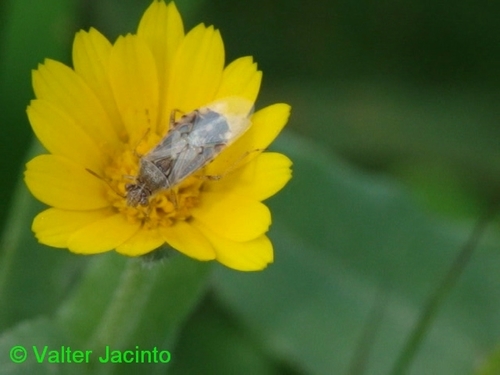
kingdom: Animalia
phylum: Arthropoda
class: Insecta
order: Hemiptera
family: Rhopalidae
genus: Liorhyssus
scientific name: Liorhyssus hyalinus
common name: Scentless plant bug
